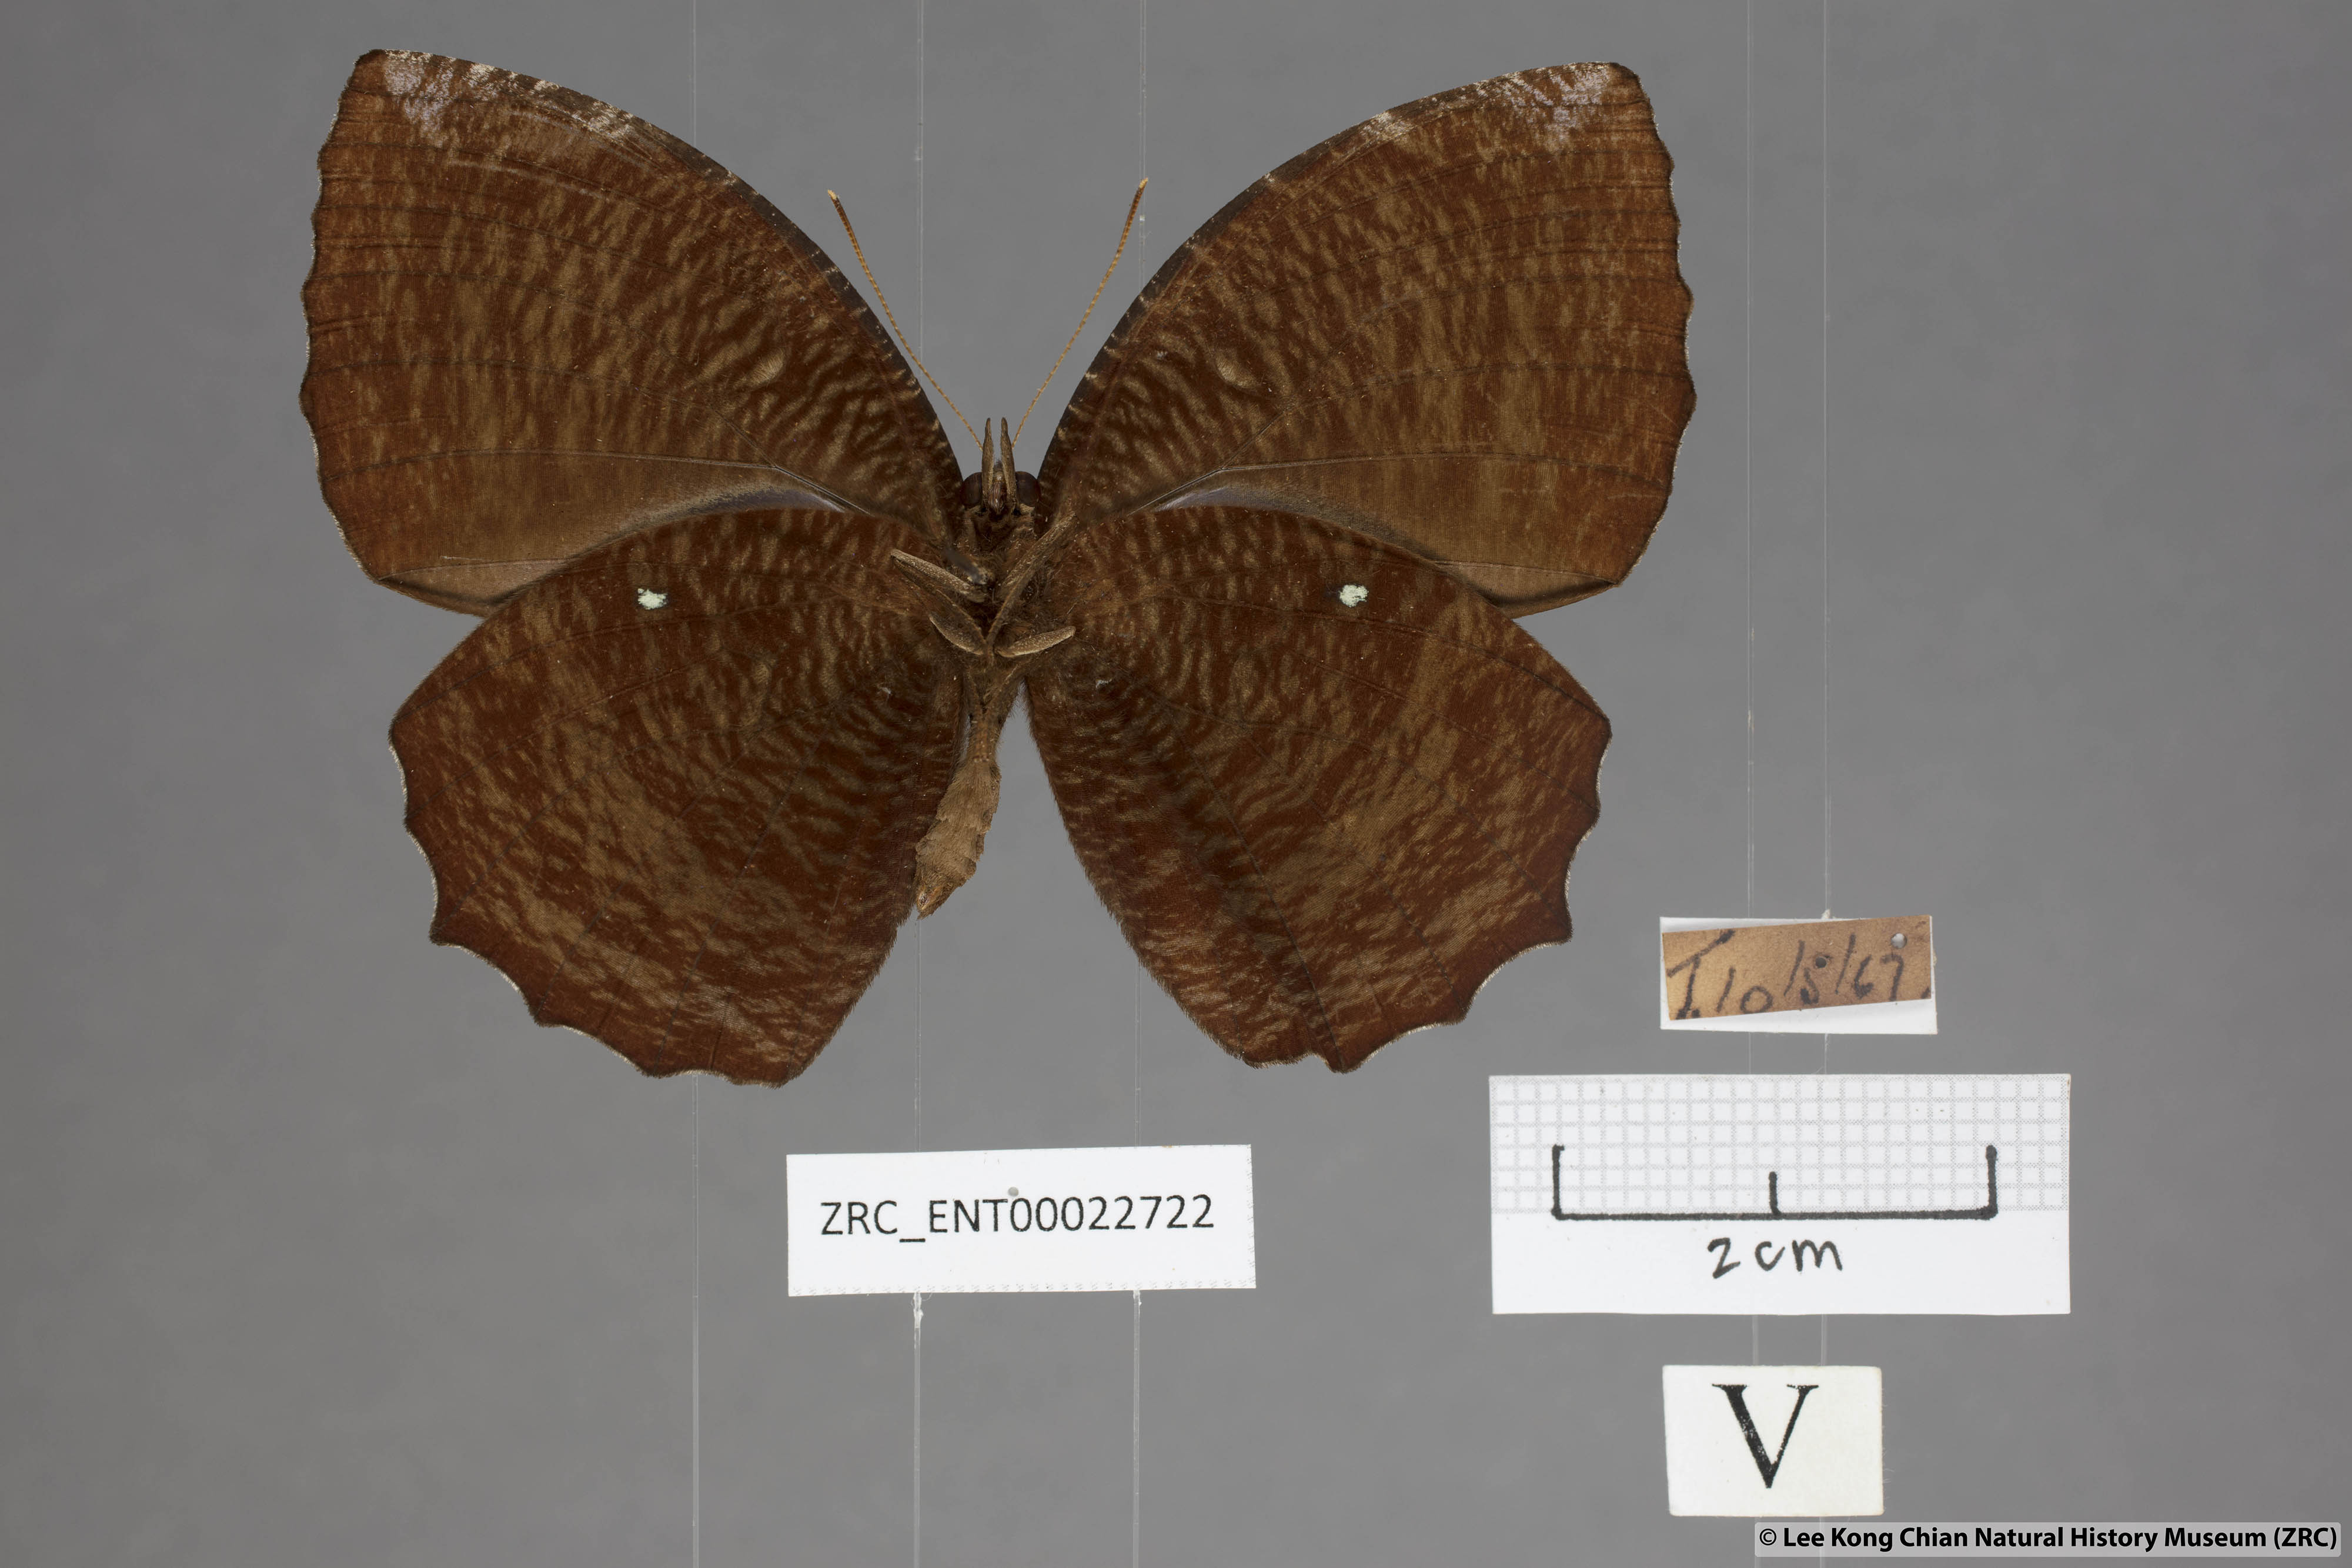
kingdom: Animalia
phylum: Arthropoda
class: Insecta
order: Lepidoptera
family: Nymphalidae
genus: Elymnias
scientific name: Elymnias hypermnestra
